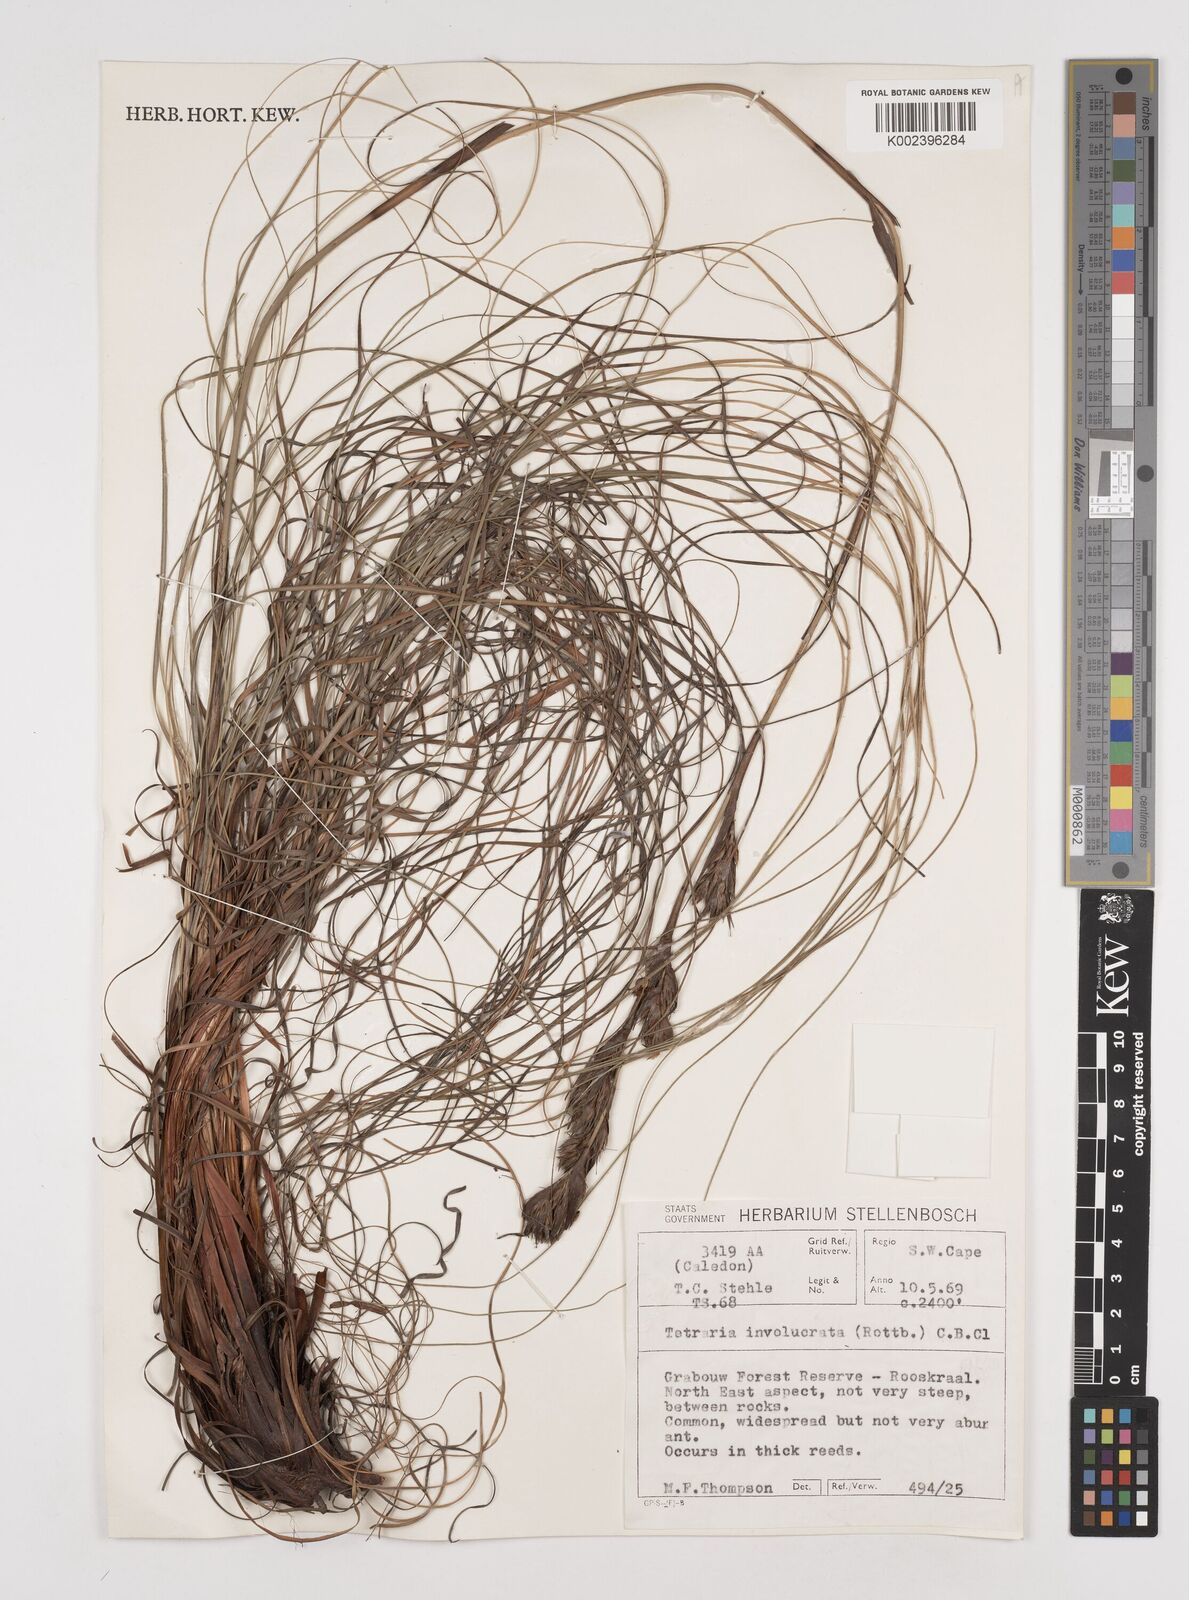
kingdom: Plantae
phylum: Tracheophyta
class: Liliopsida
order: Poales
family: Cyperaceae
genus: Tetraria
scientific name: Tetraria involucrata
